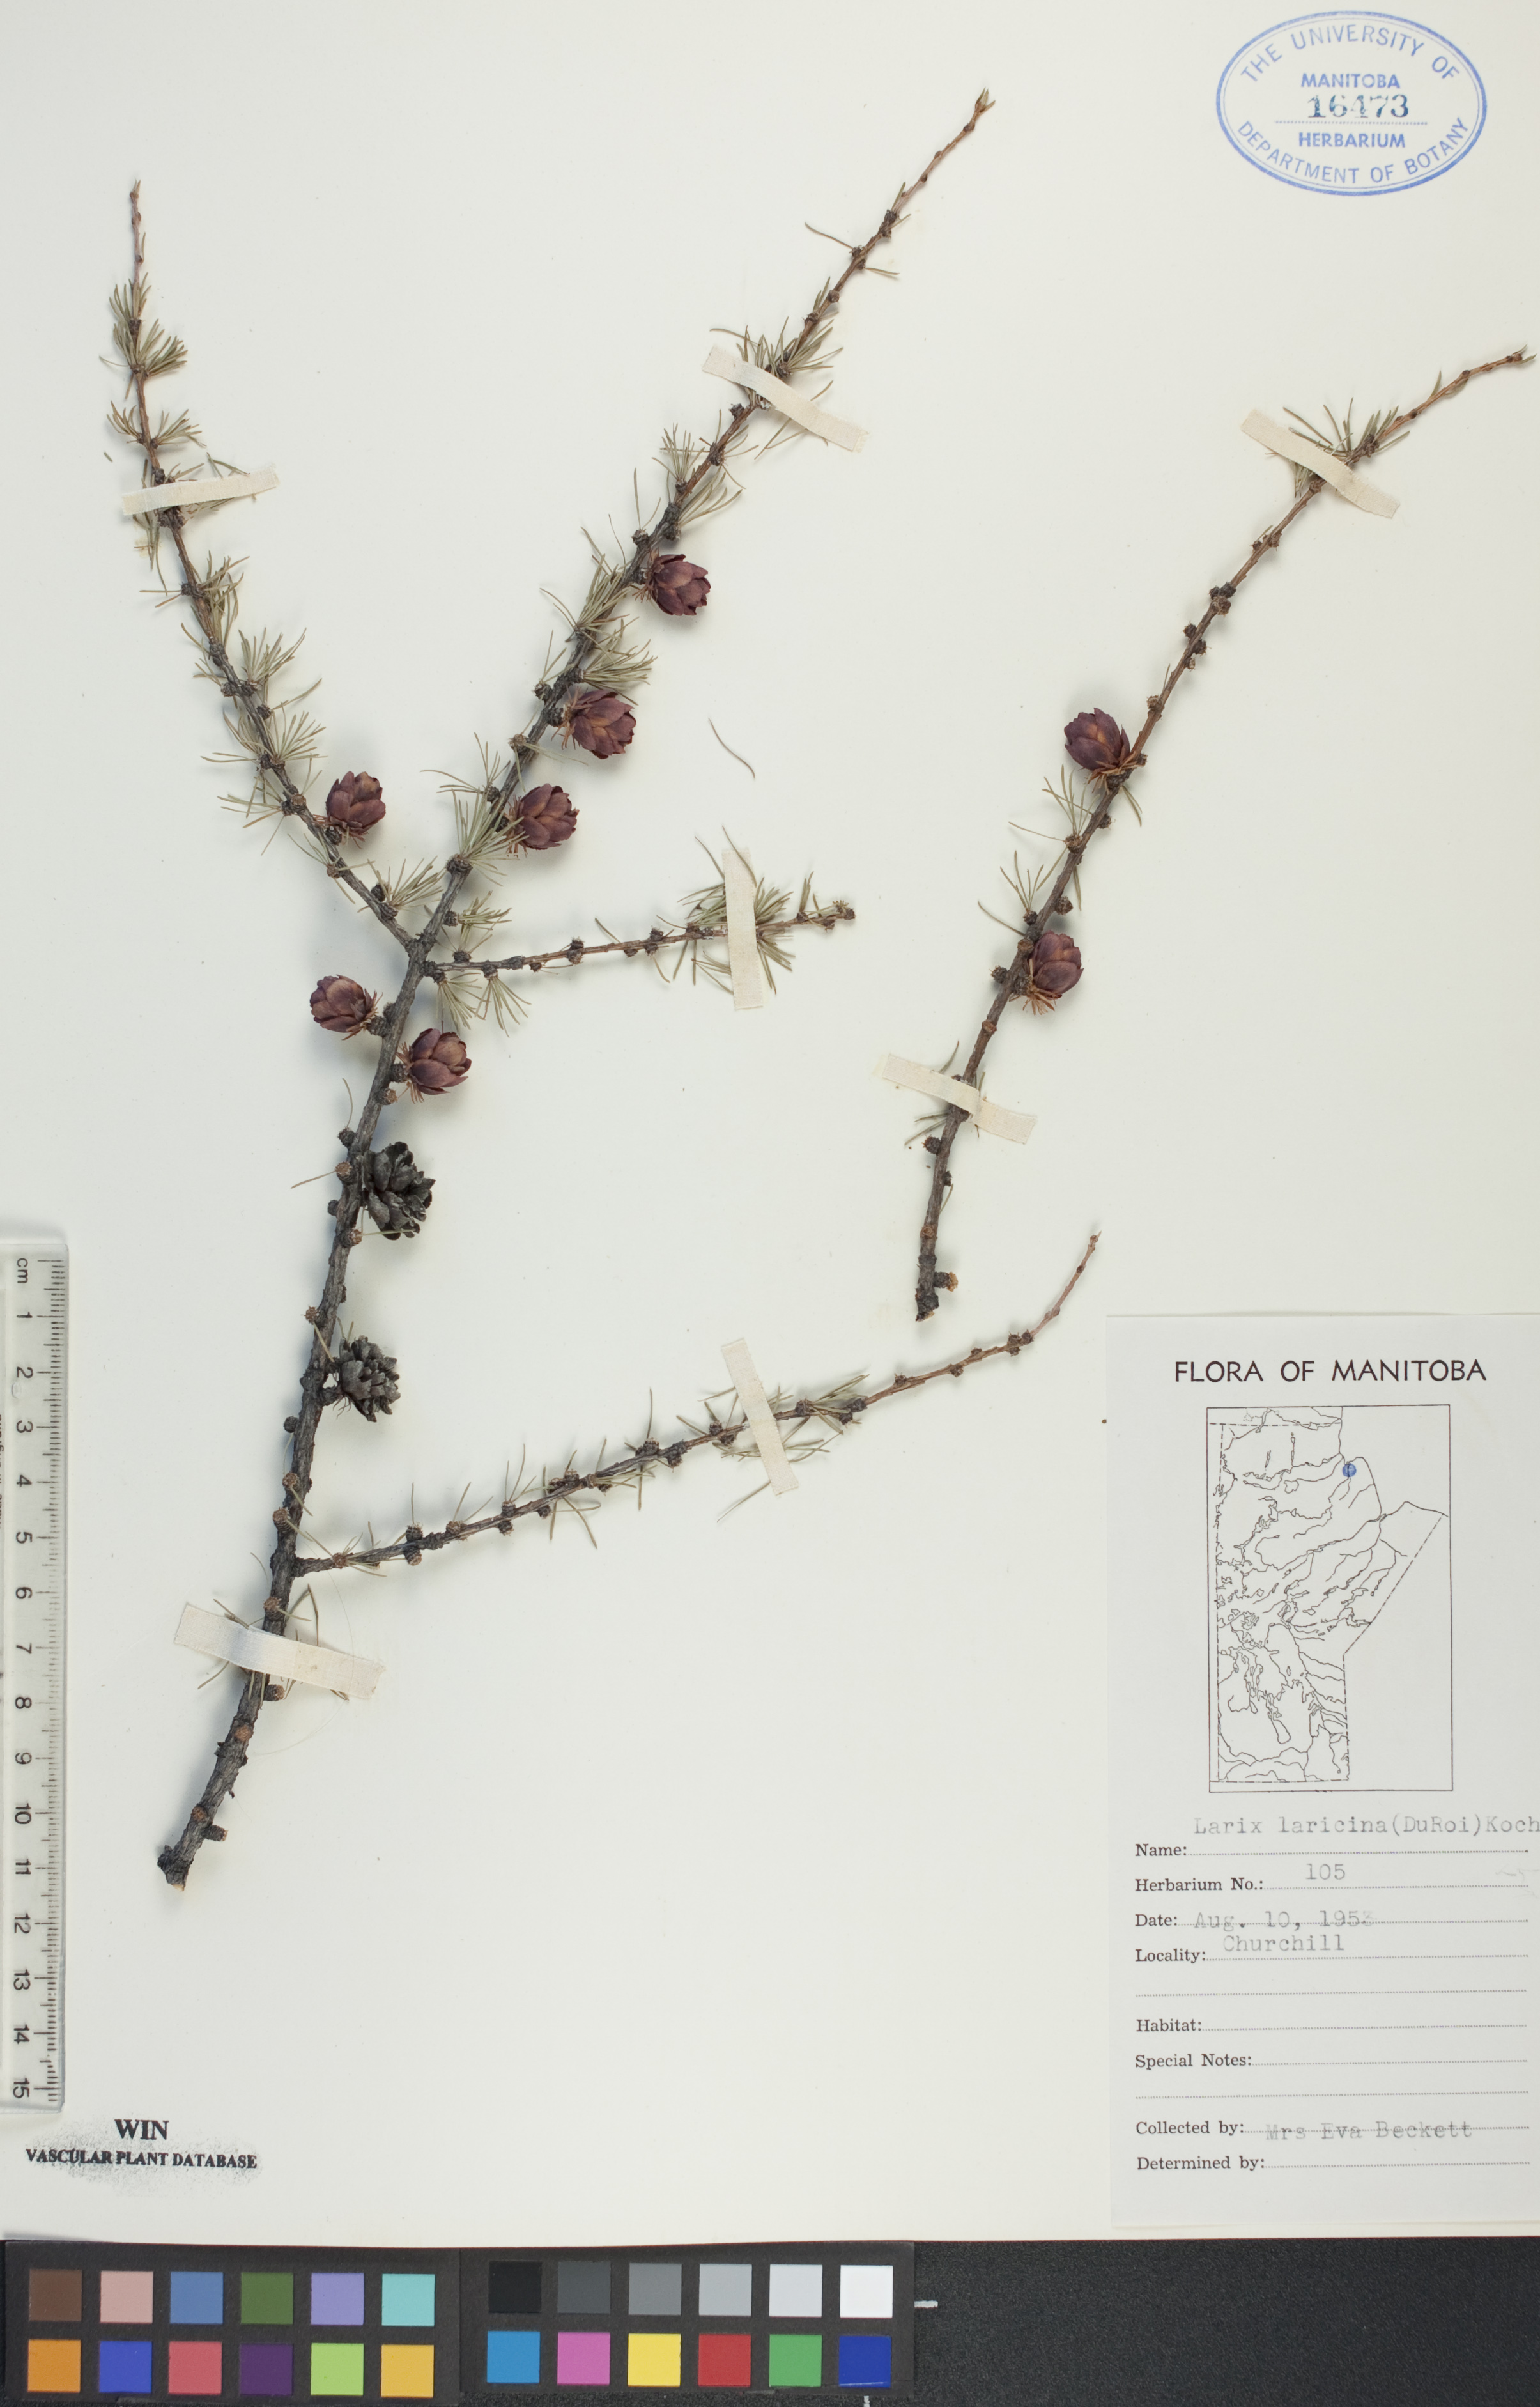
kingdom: Plantae
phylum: Tracheophyta
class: Pinopsida
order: Pinales
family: Pinaceae
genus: Larix
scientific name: Larix laricina
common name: American larch
